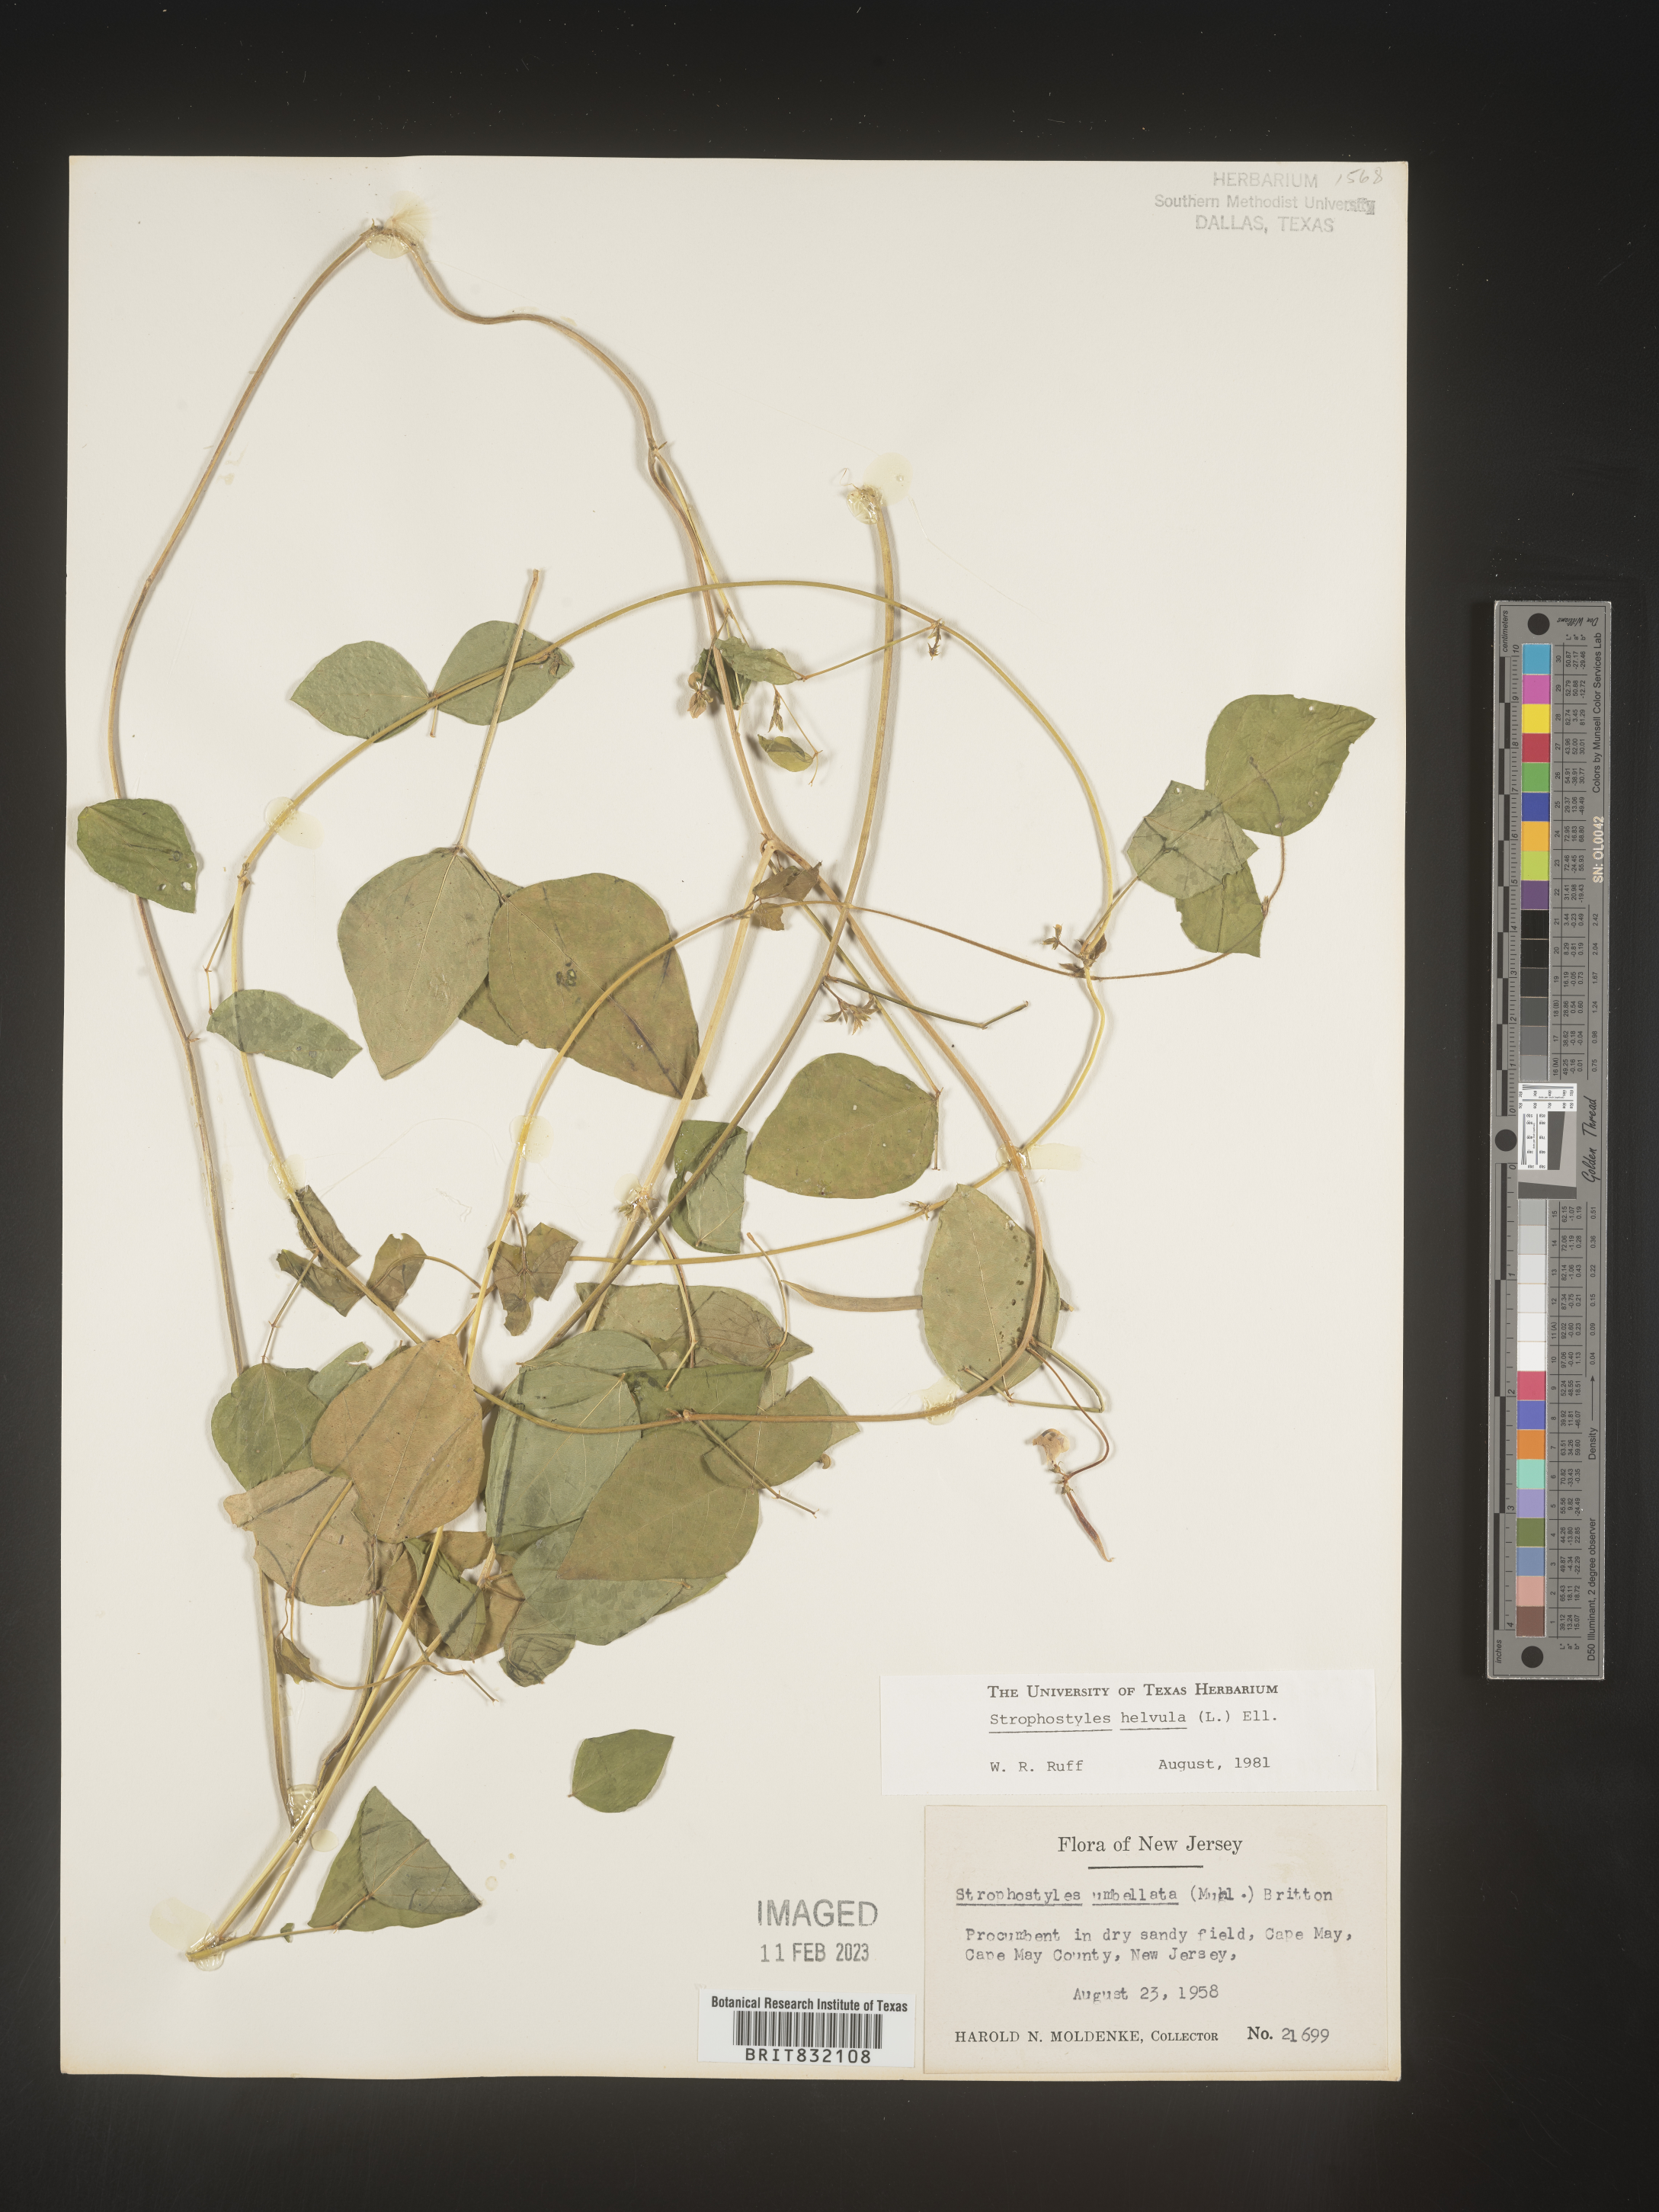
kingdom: Plantae
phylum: Tracheophyta
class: Magnoliopsida
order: Fabales
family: Fabaceae
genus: Strophostyles
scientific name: Strophostyles helvola
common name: Trailing wild bean
